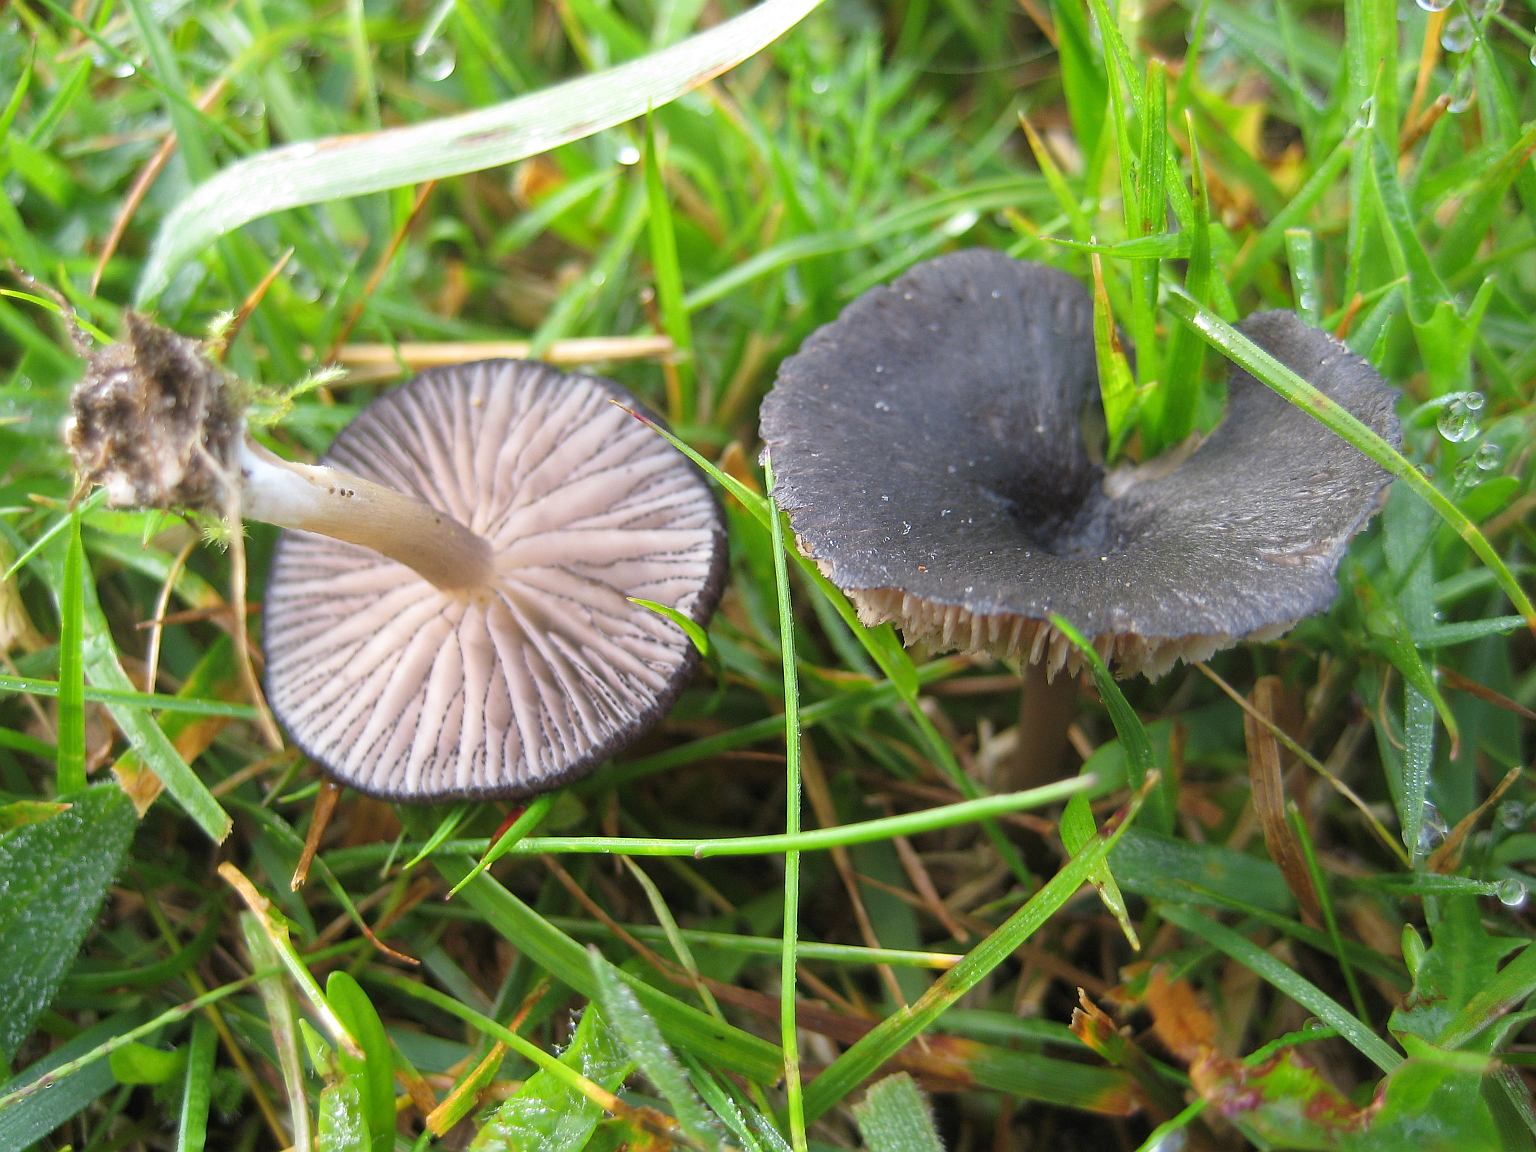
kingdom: Fungi
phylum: Basidiomycota
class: Agaricomycetes
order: Agaricales
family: Entolomataceae
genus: Entoloma
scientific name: Entoloma
